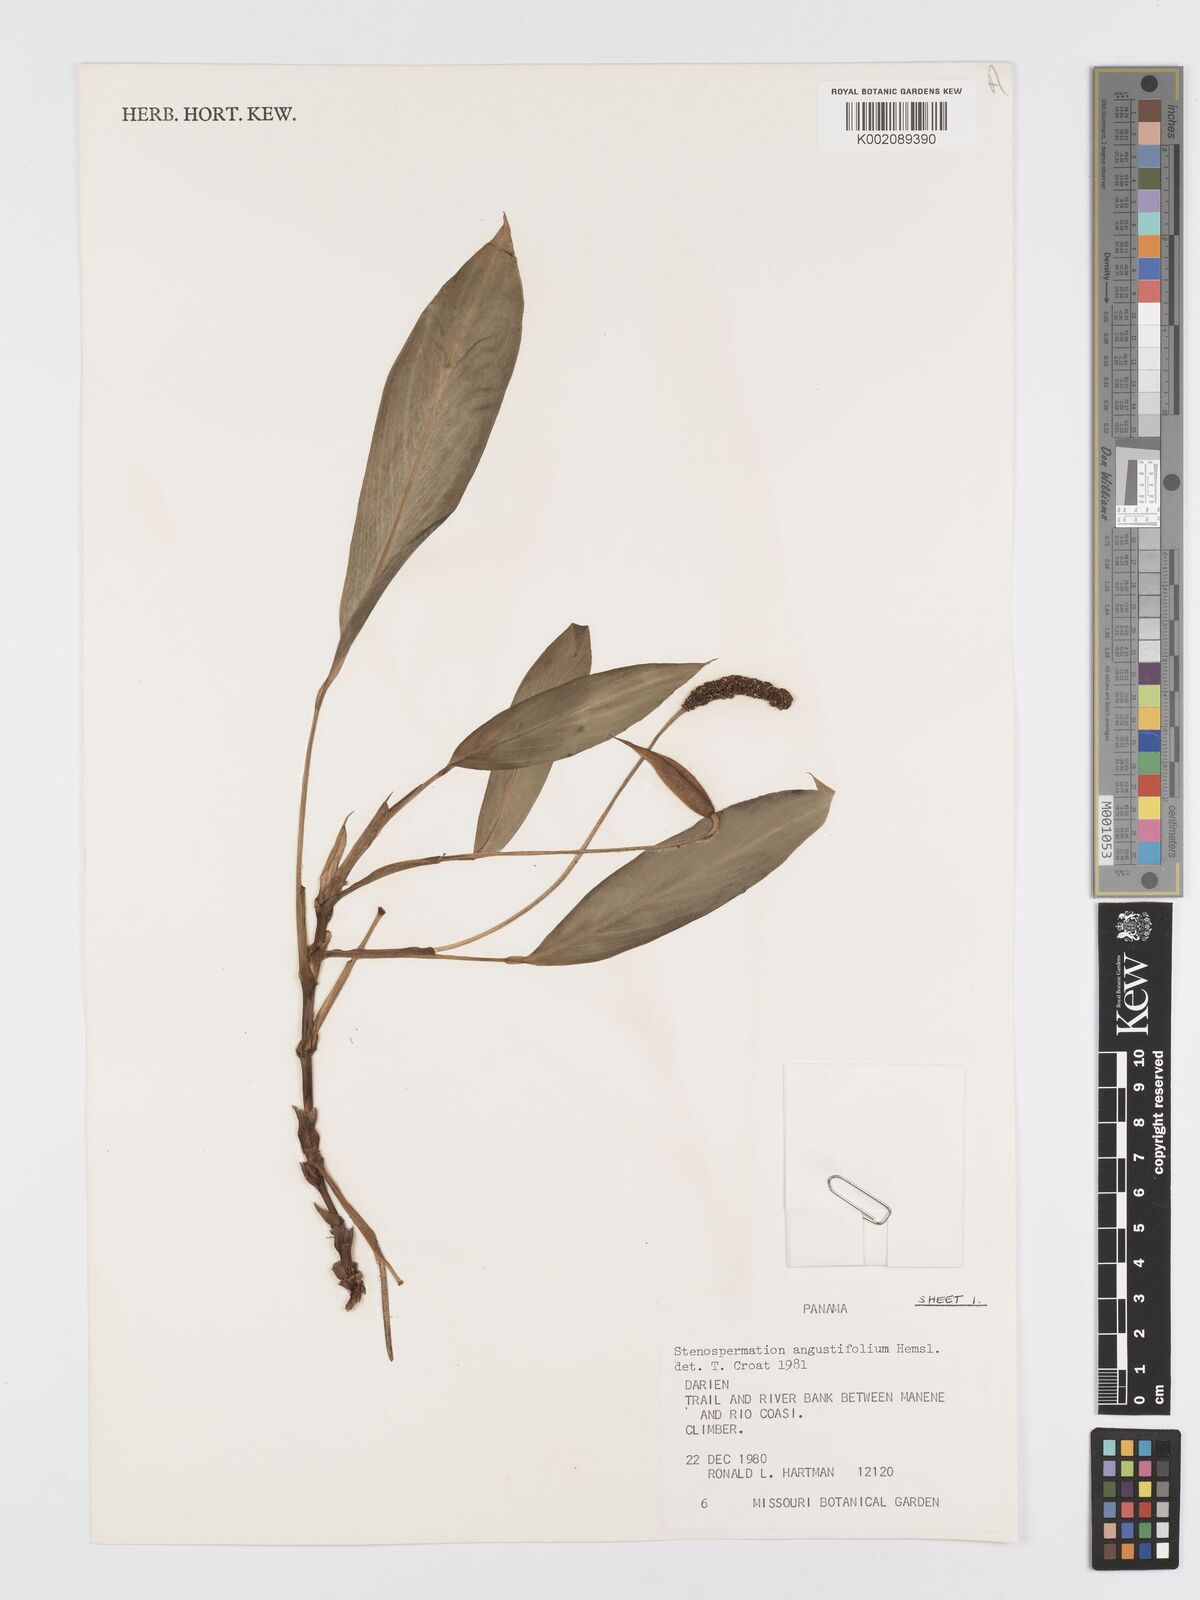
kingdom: Plantae
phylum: Tracheophyta
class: Liliopsida
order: Alismatales
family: Araceae
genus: Stenospermation
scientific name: Stenospermation angustifolium
